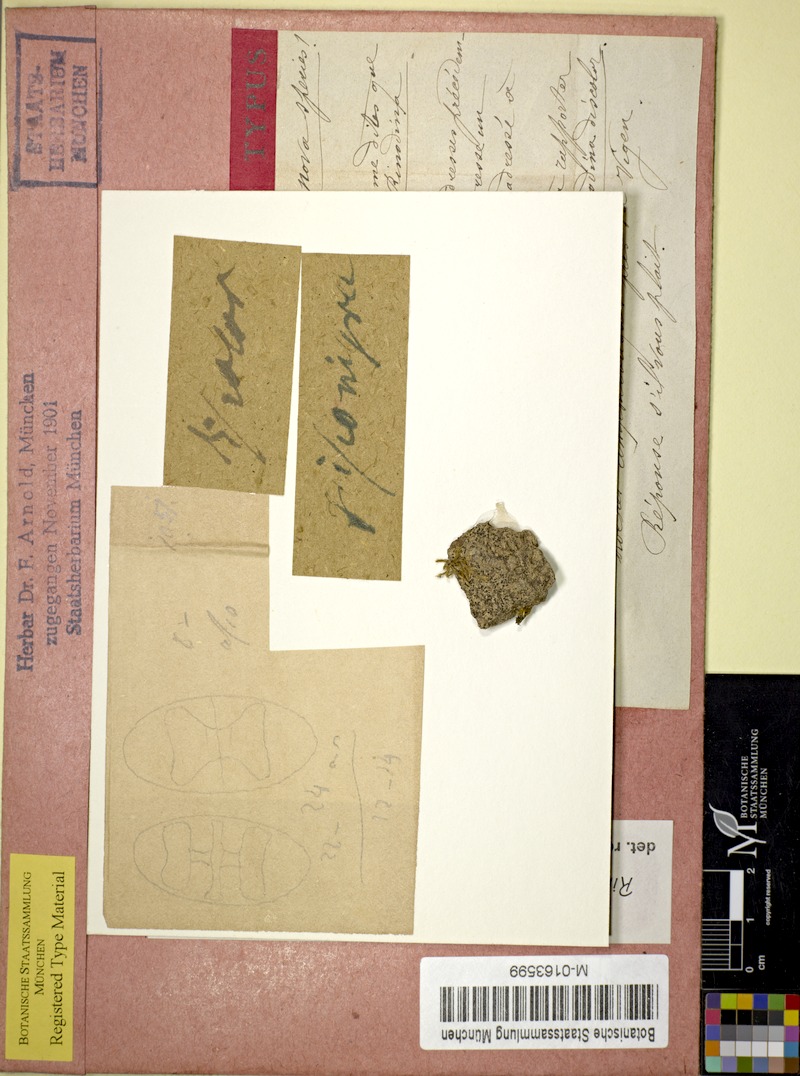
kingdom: Fungi
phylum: Ascomycota
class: Lecanoromycetes
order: Caliciales
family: Physciaceae
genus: Mischoblastia
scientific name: Mischoblastia oxydata
